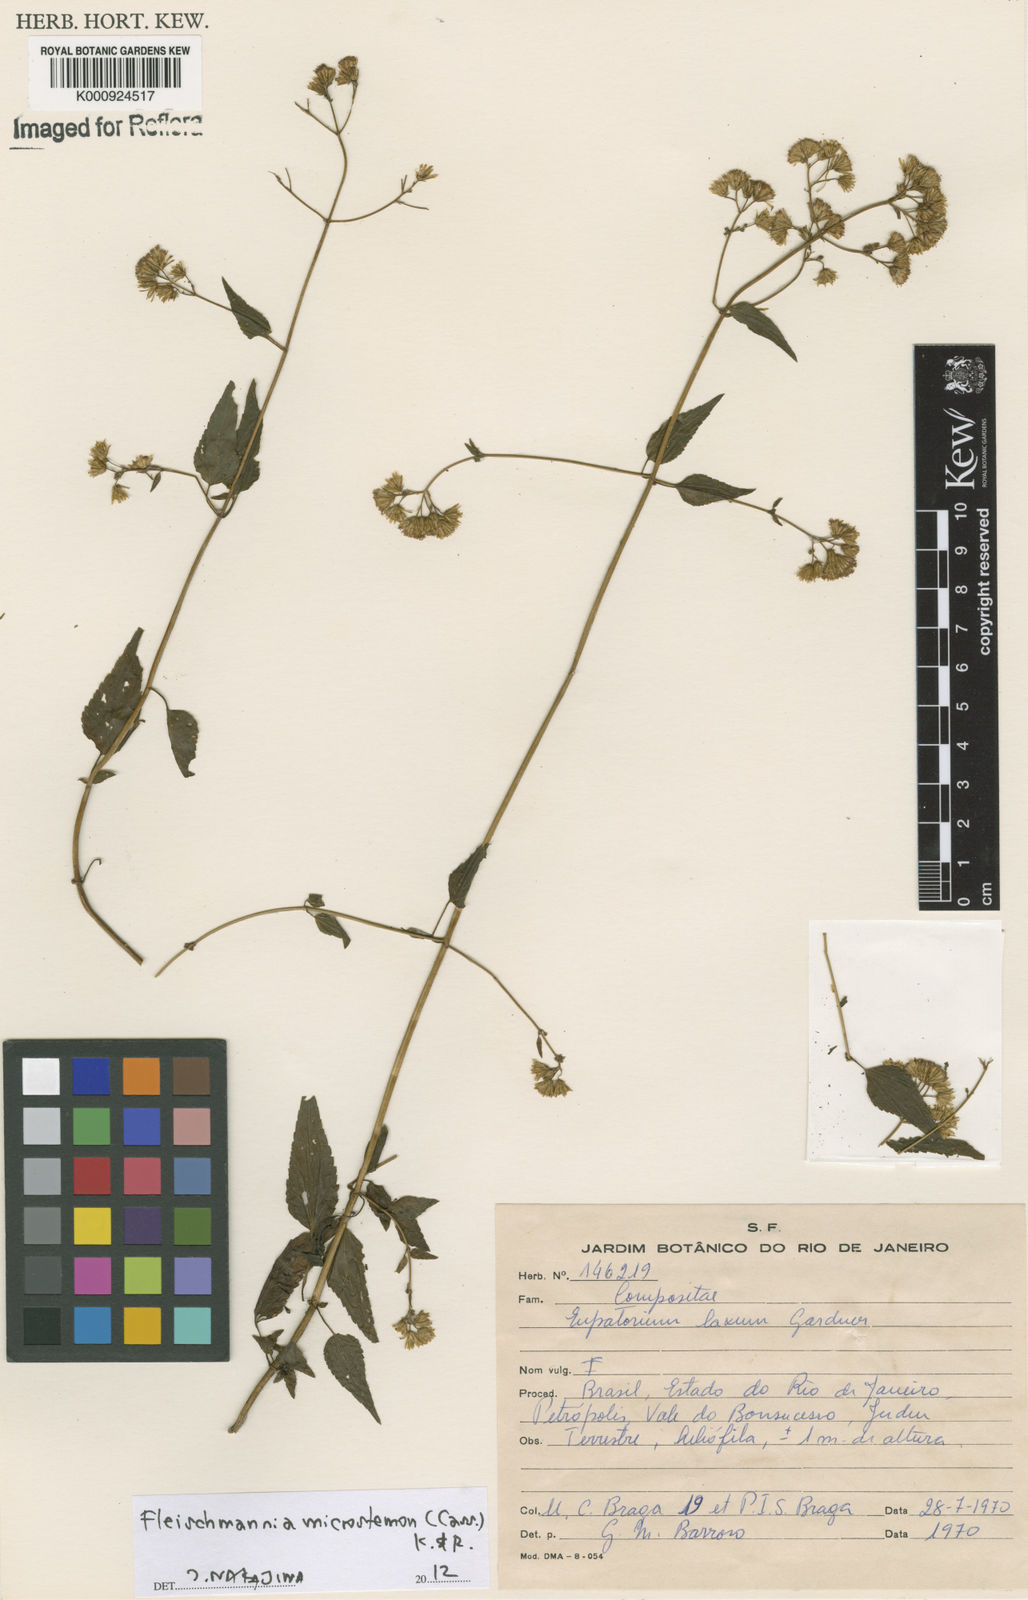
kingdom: Plantae
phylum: Tracheophyta
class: Magnoliopsida
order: Asterales
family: Asteraceae
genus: Fleischmannia
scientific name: Fleischmannia microstemon
